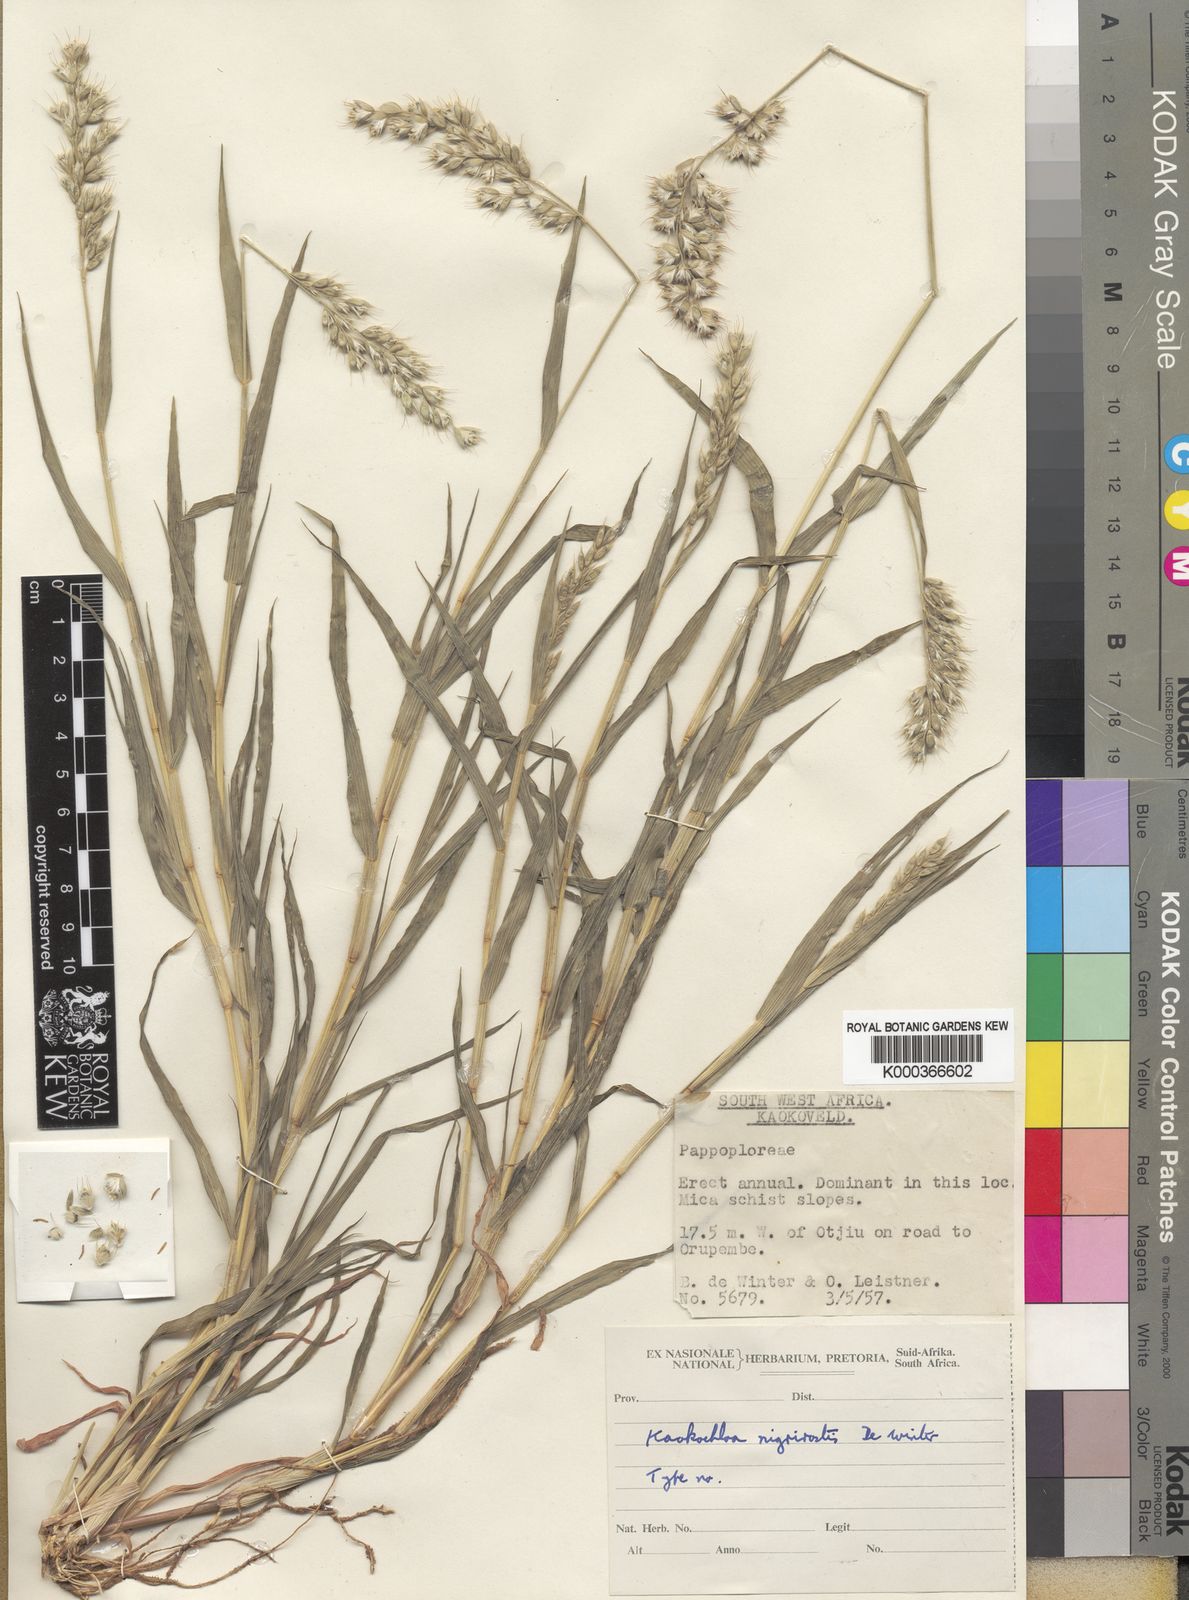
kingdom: Plantae
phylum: Tracheophyta
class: Liliopsida
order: Poales
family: Poaceae
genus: Kaokochloa
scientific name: Kaokochloa nigrirostris
